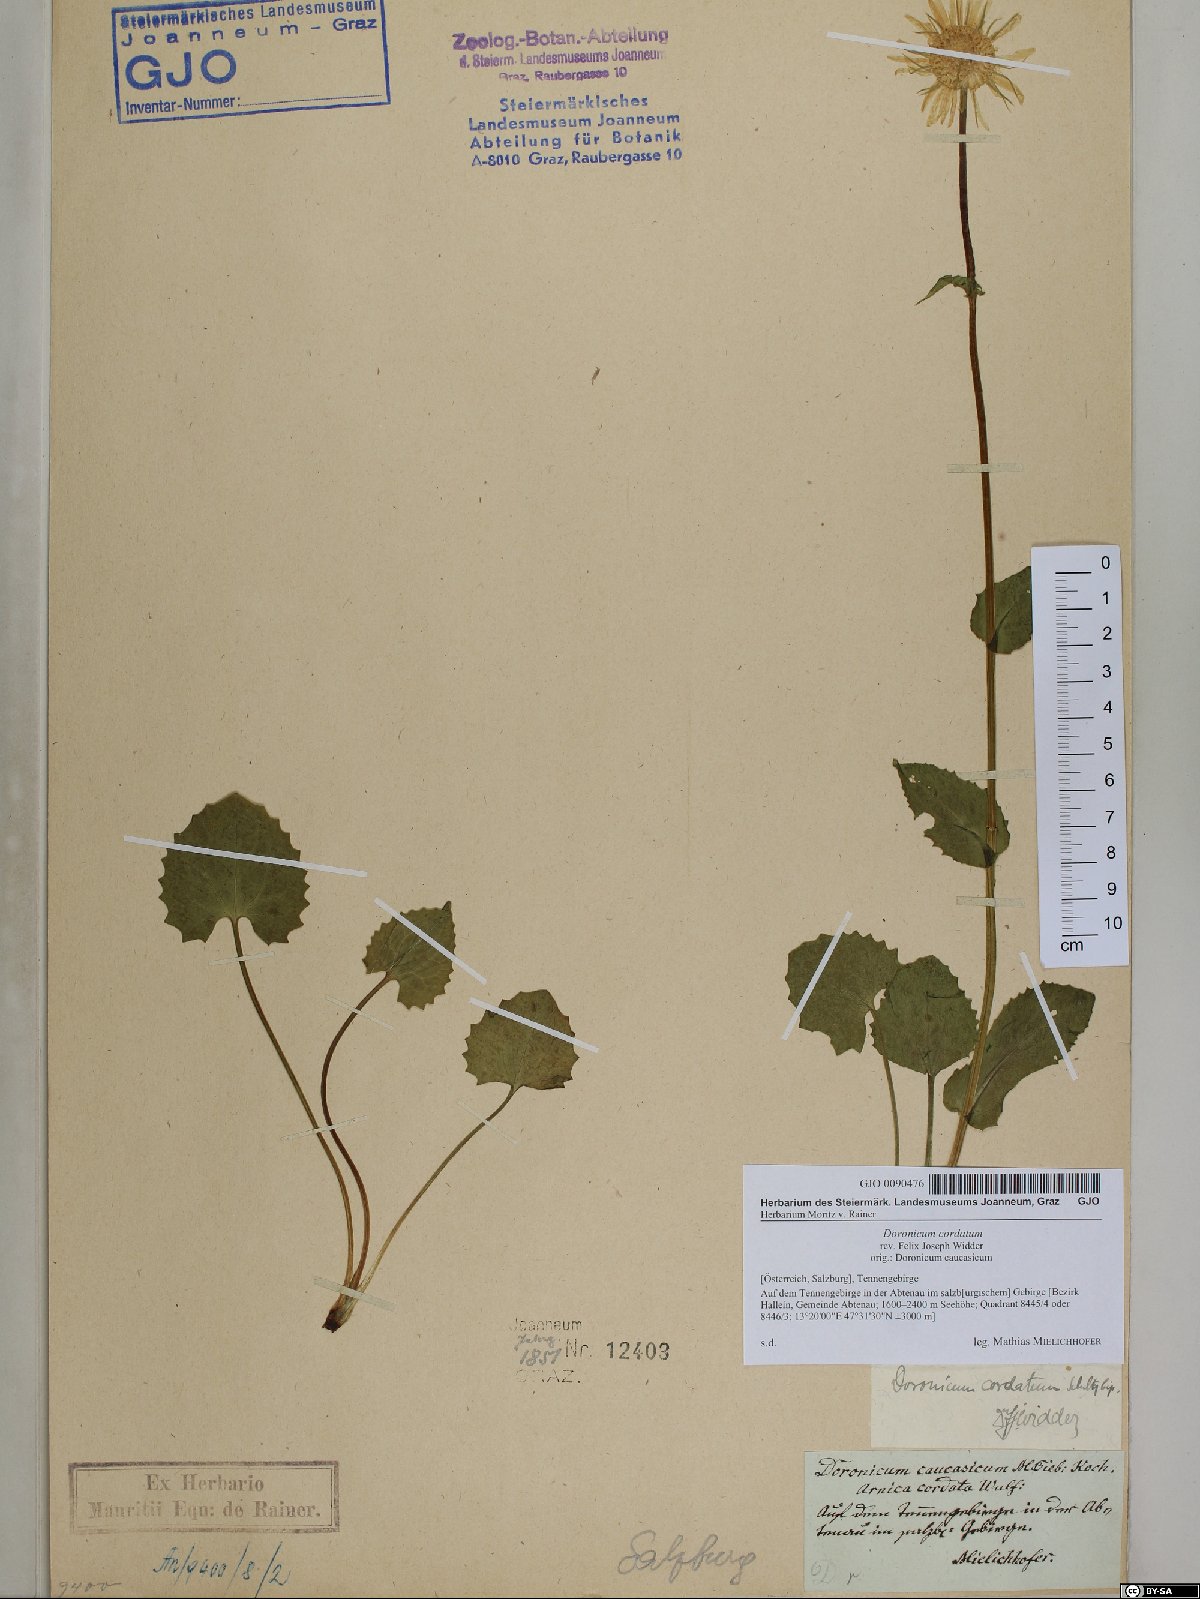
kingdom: Plantae
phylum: Tracheophyta
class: Magnoliopsida
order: Asterales
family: Asteraceae
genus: Doronicum
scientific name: Doronicum columnae
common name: Eastern leopard's-bane
